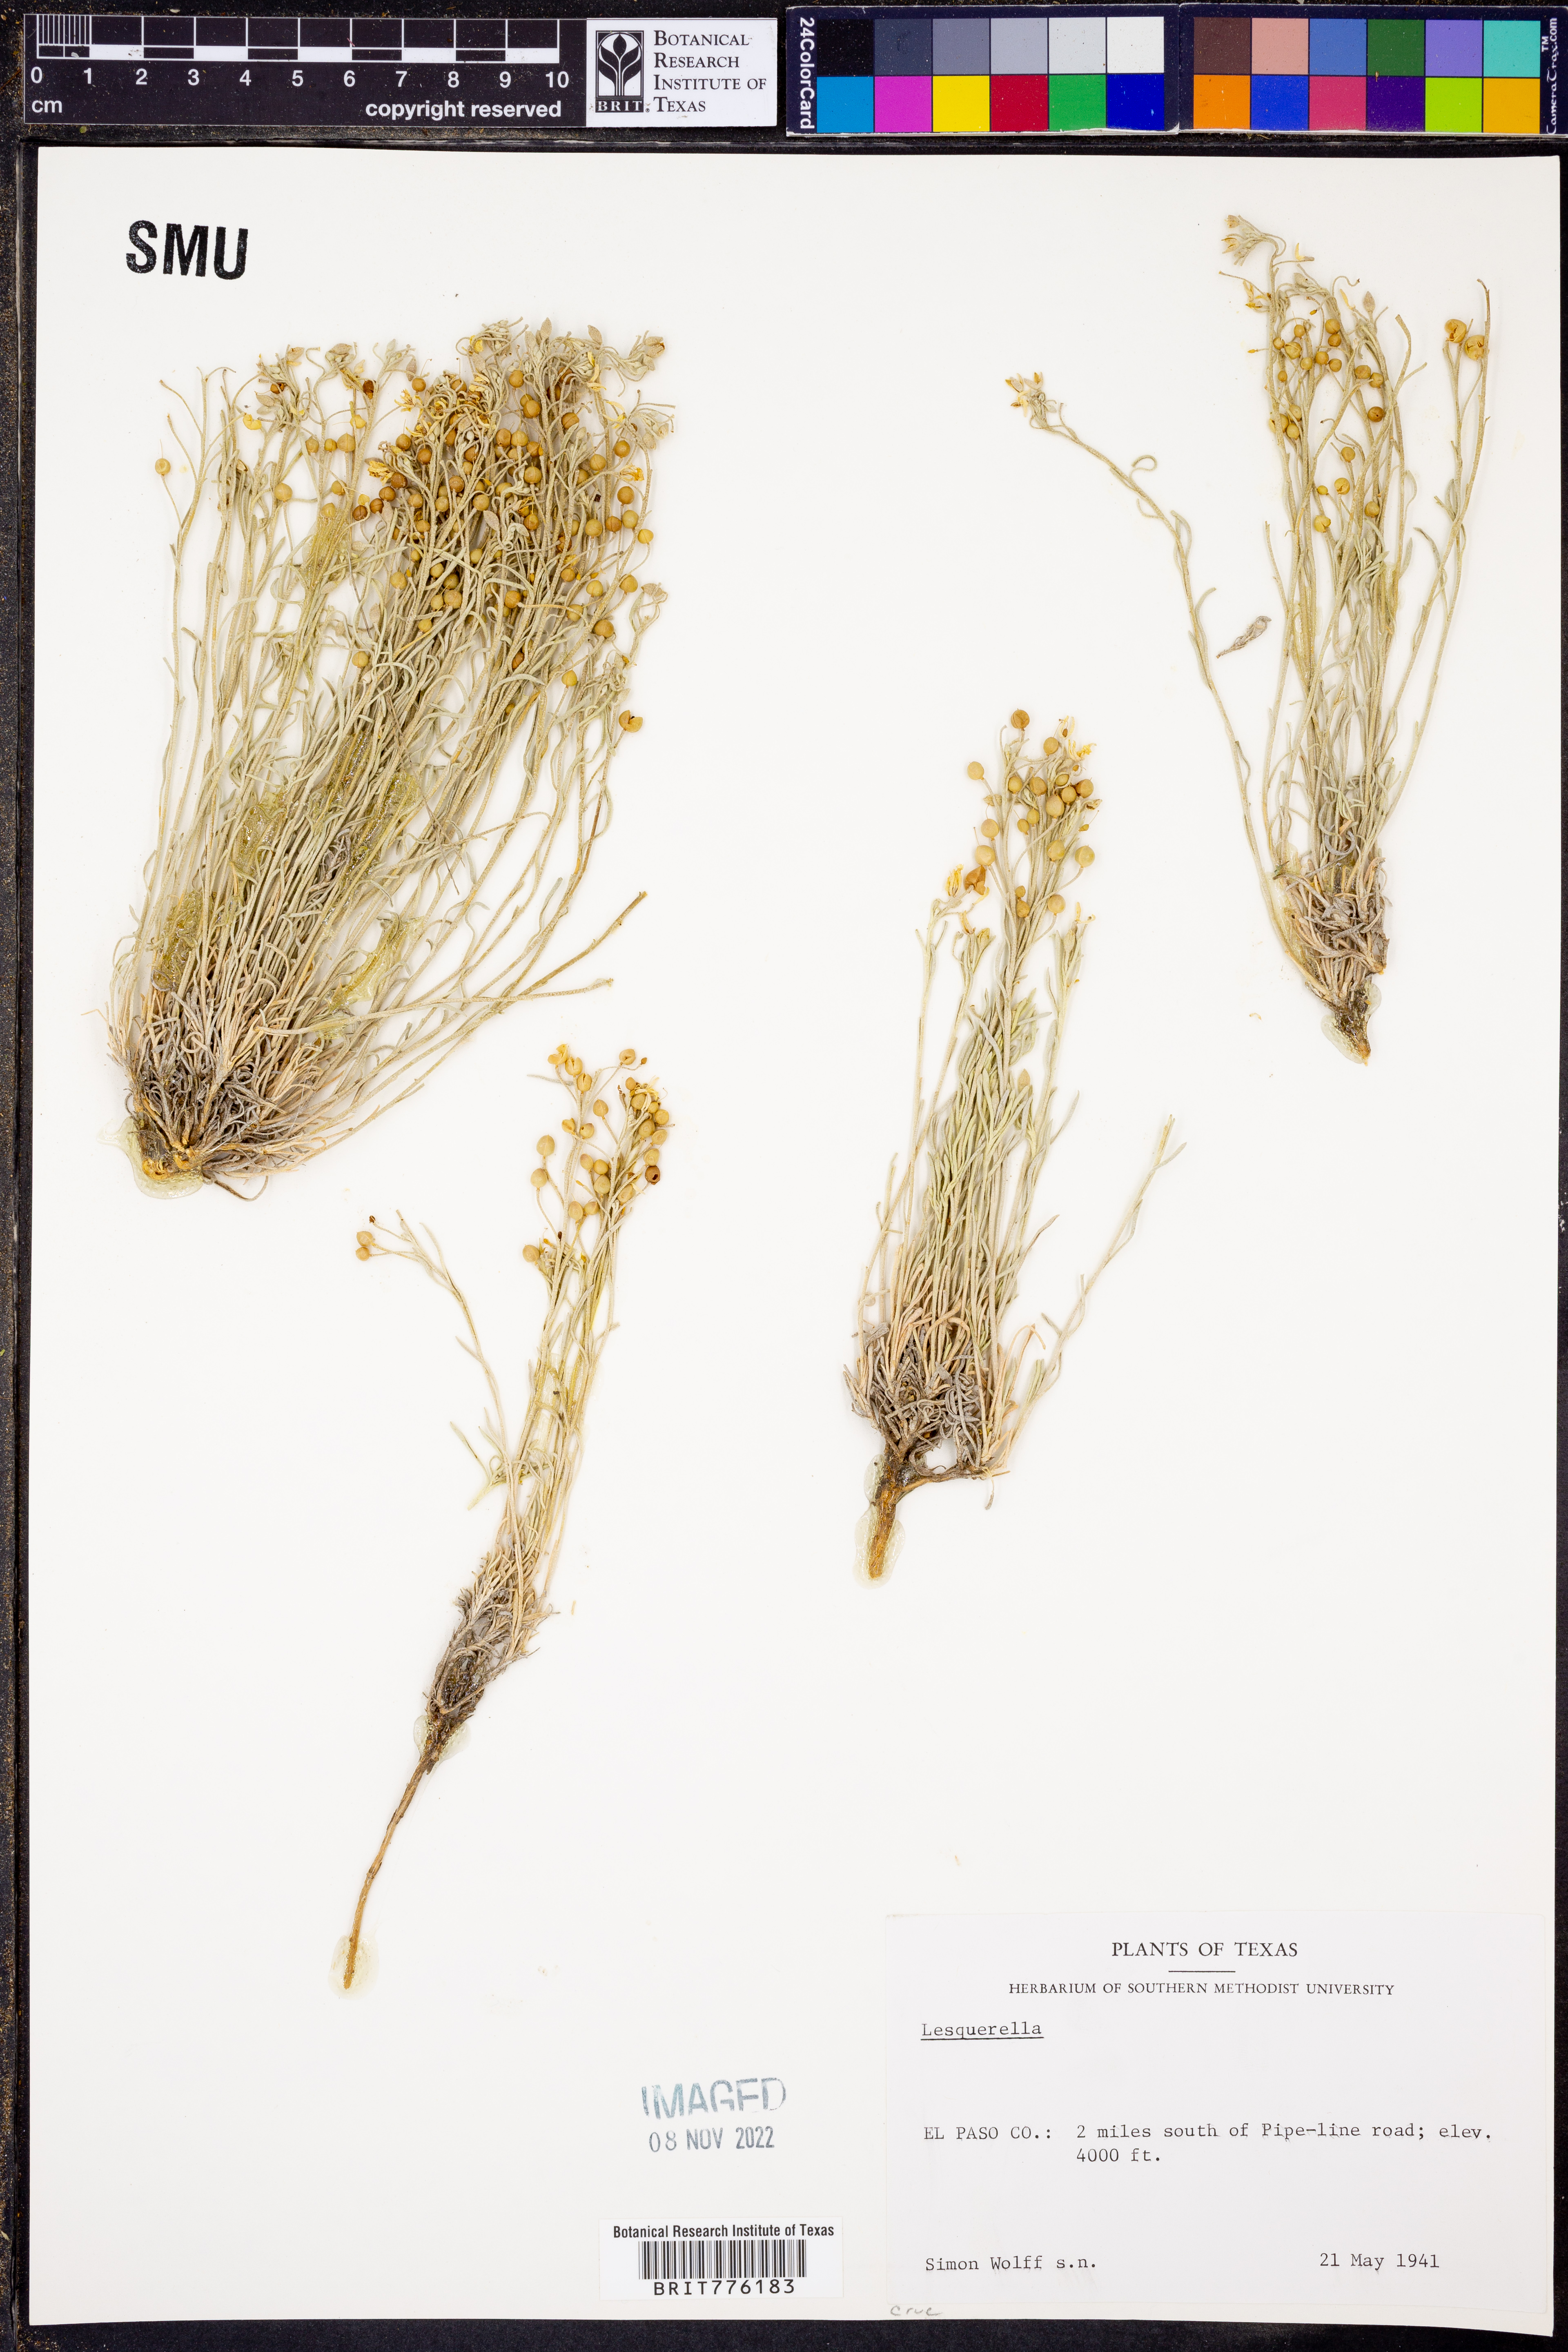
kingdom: Chromista
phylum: Cercozoa
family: Psammonobiotidae
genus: Lesquerella
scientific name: Lesquerella
